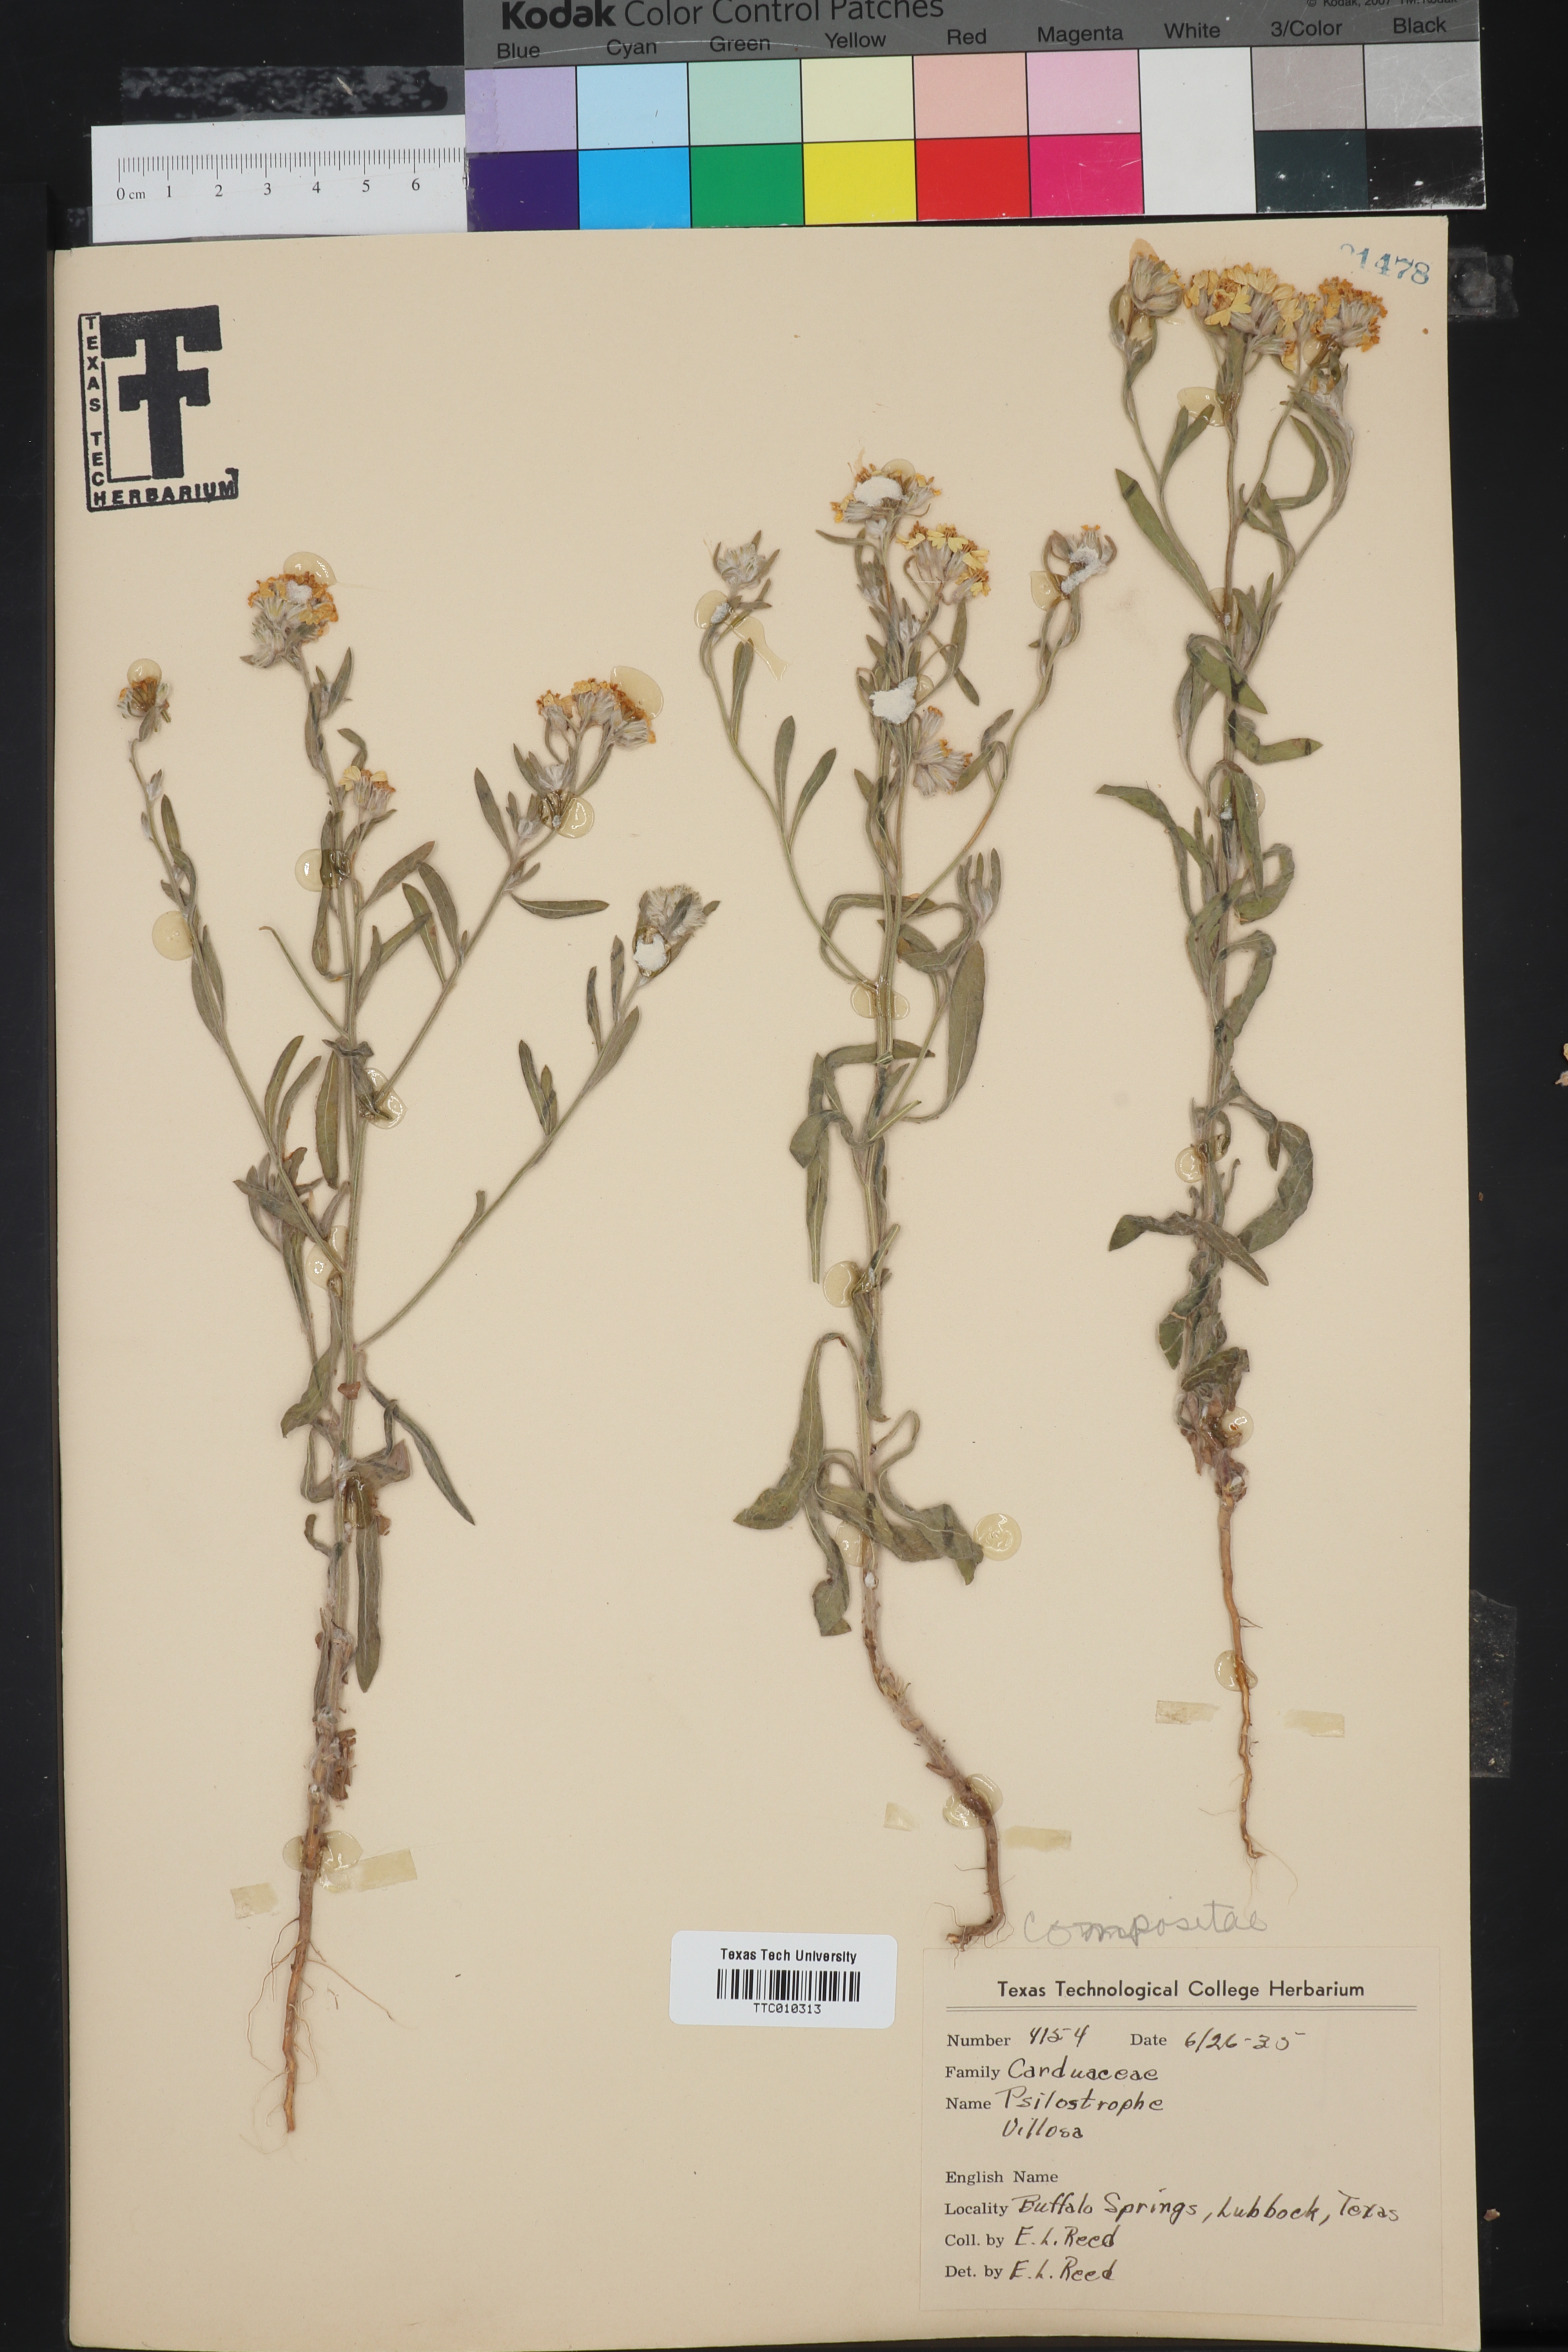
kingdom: Plantae
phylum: Tracheophyta
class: Magnoliopsida
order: Asterales
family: Asteraceae
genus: Psilostrophe
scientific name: Psilostrophe villosa
